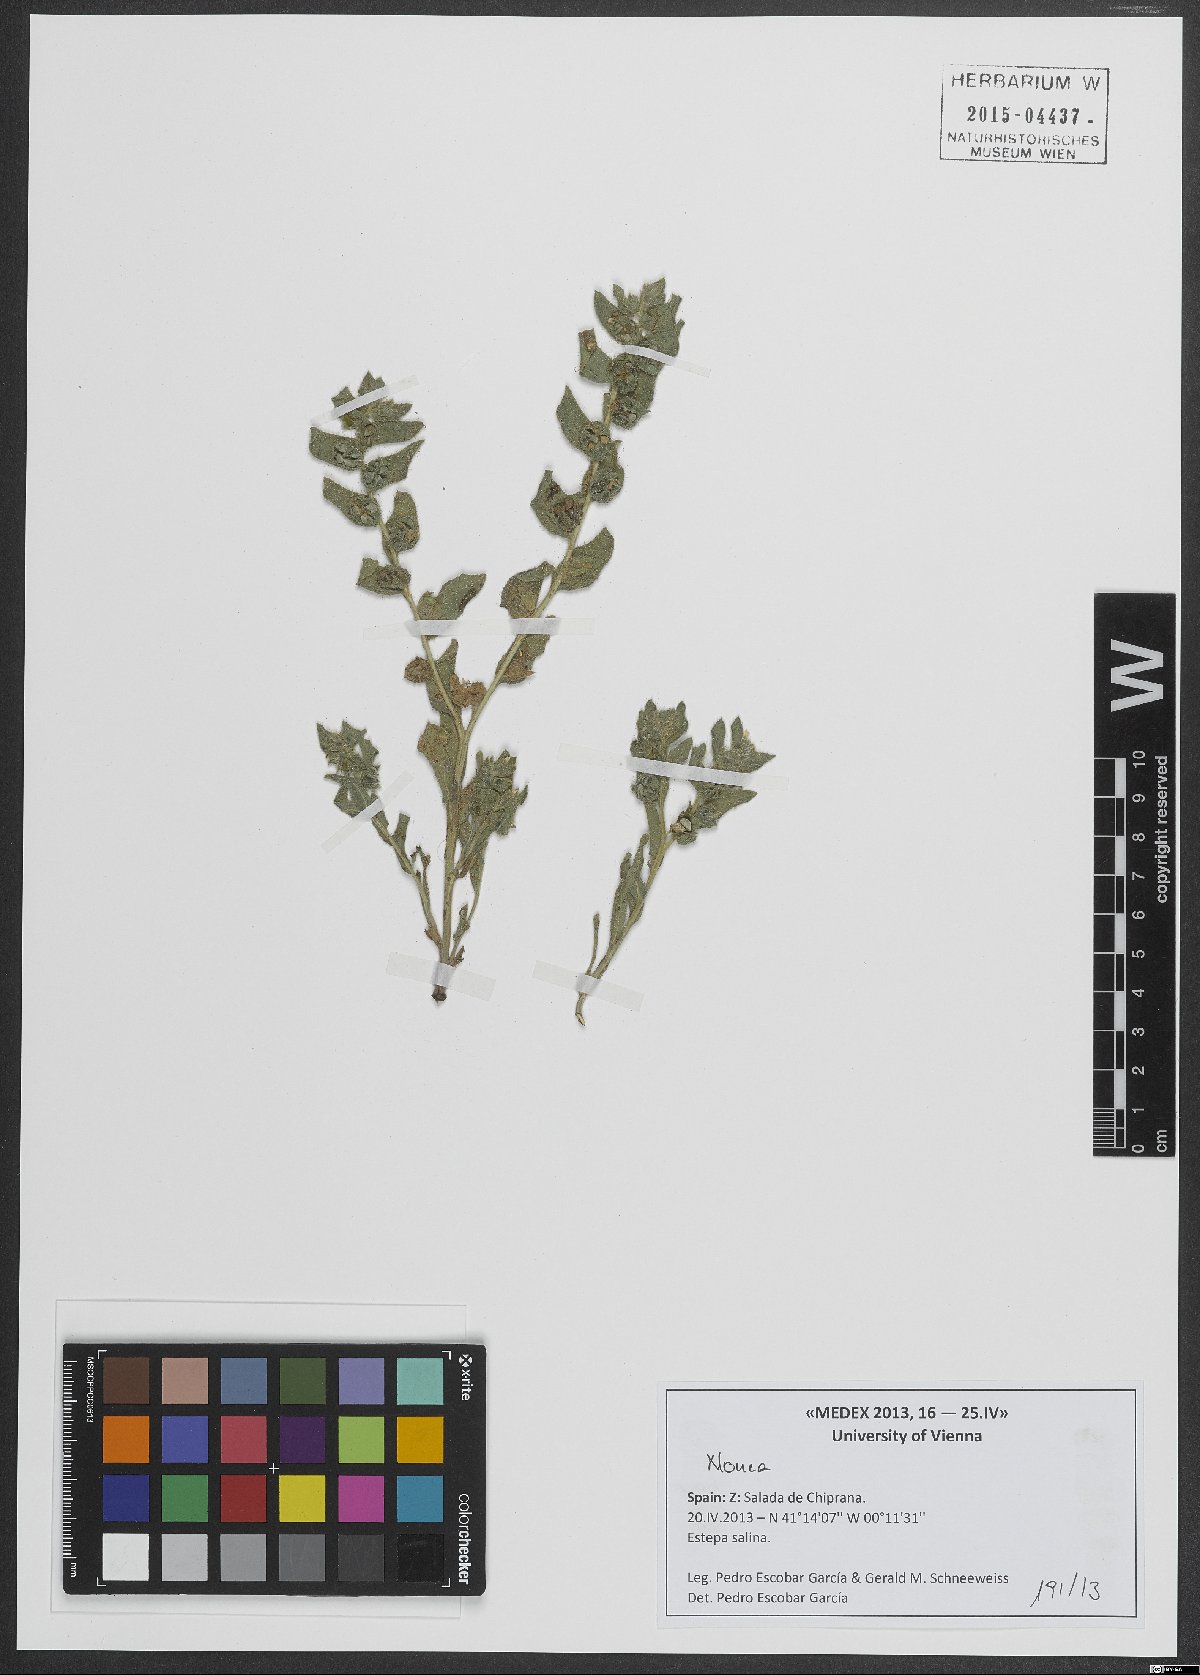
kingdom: Plantae
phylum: Tracheophyta
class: Magnoliopsida
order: Boraginales
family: Boraginaceae
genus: Nonea
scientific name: Nonea
